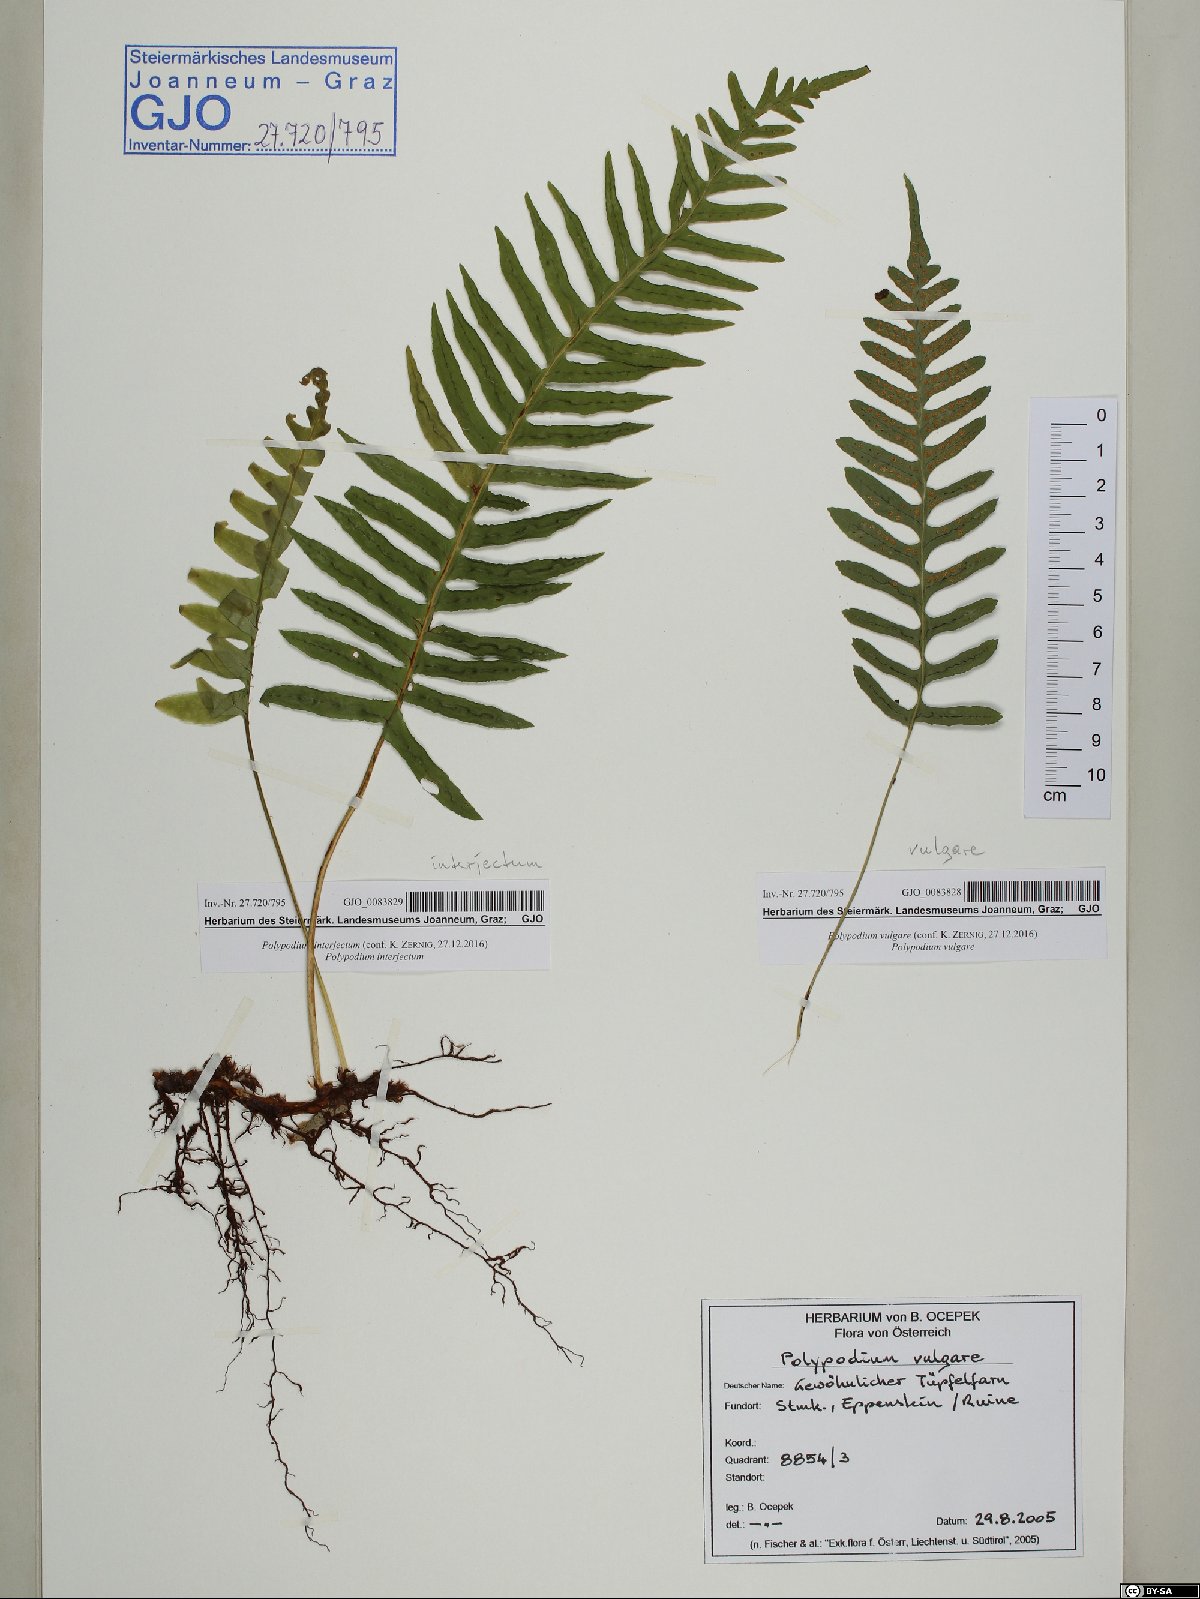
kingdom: Plantae
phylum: Tracheophyta
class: Polypodiopsida
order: Polypodiales
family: Polypodiaceae
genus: Polypodium
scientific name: Polypodium interjectum
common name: Intermediate polypody
